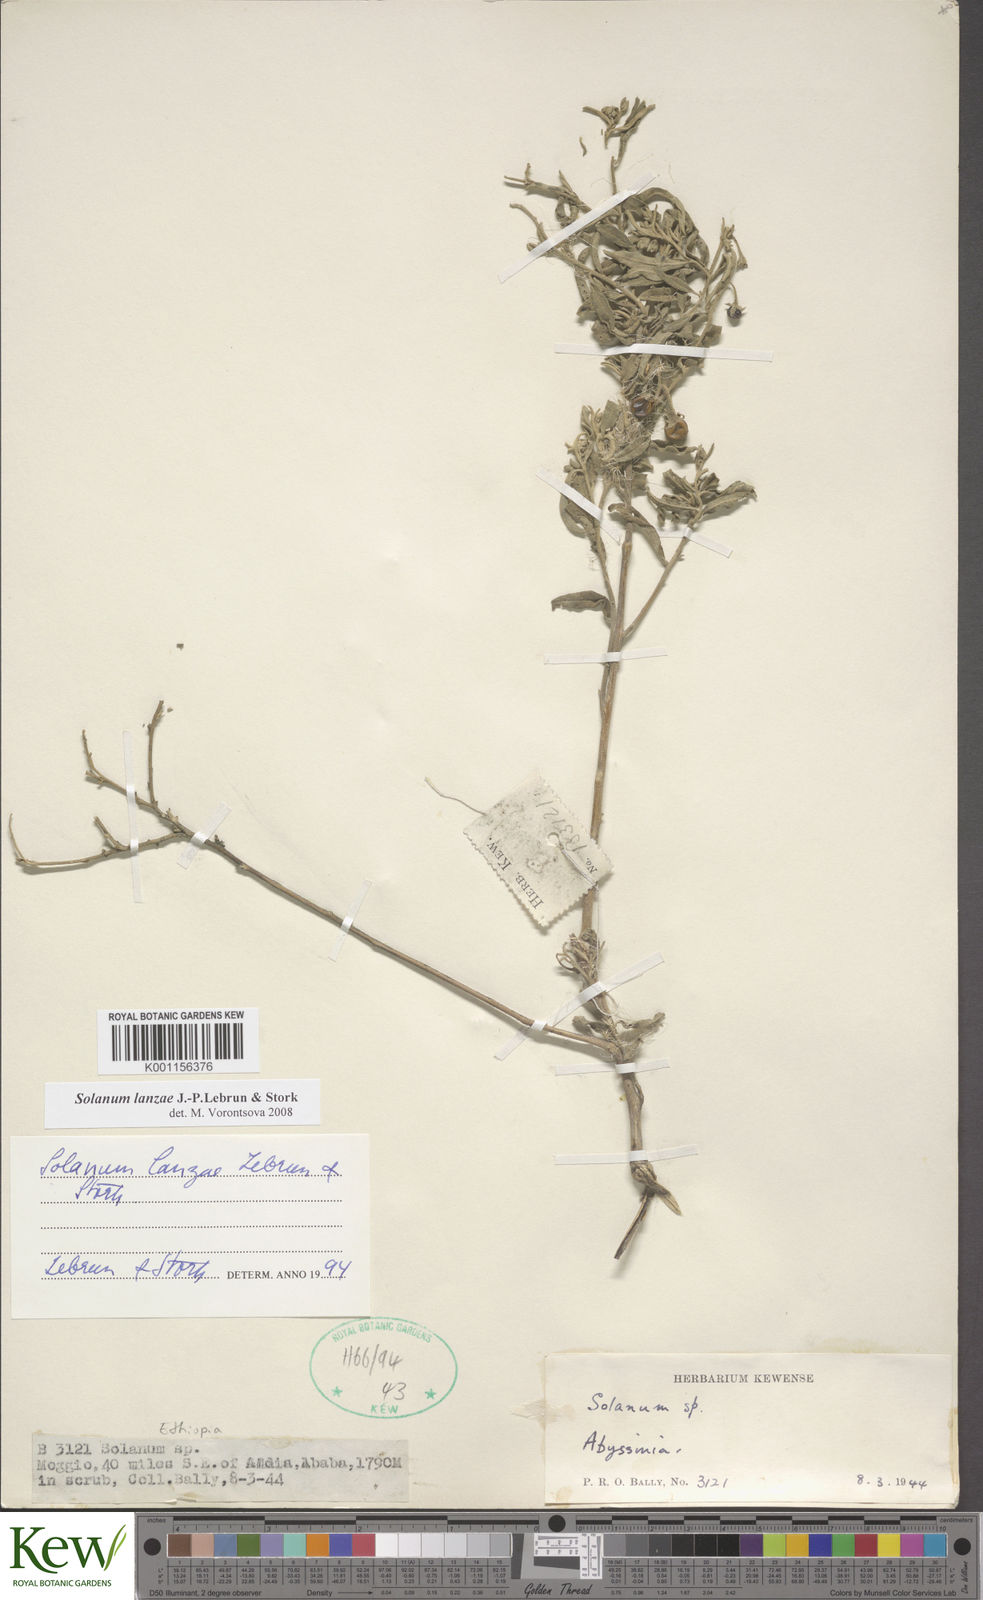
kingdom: Plantae
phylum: Tracheophyta
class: Magnoliopsida
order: Solanales
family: Solanaceae
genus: Solanum
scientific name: Solanum lanzae
